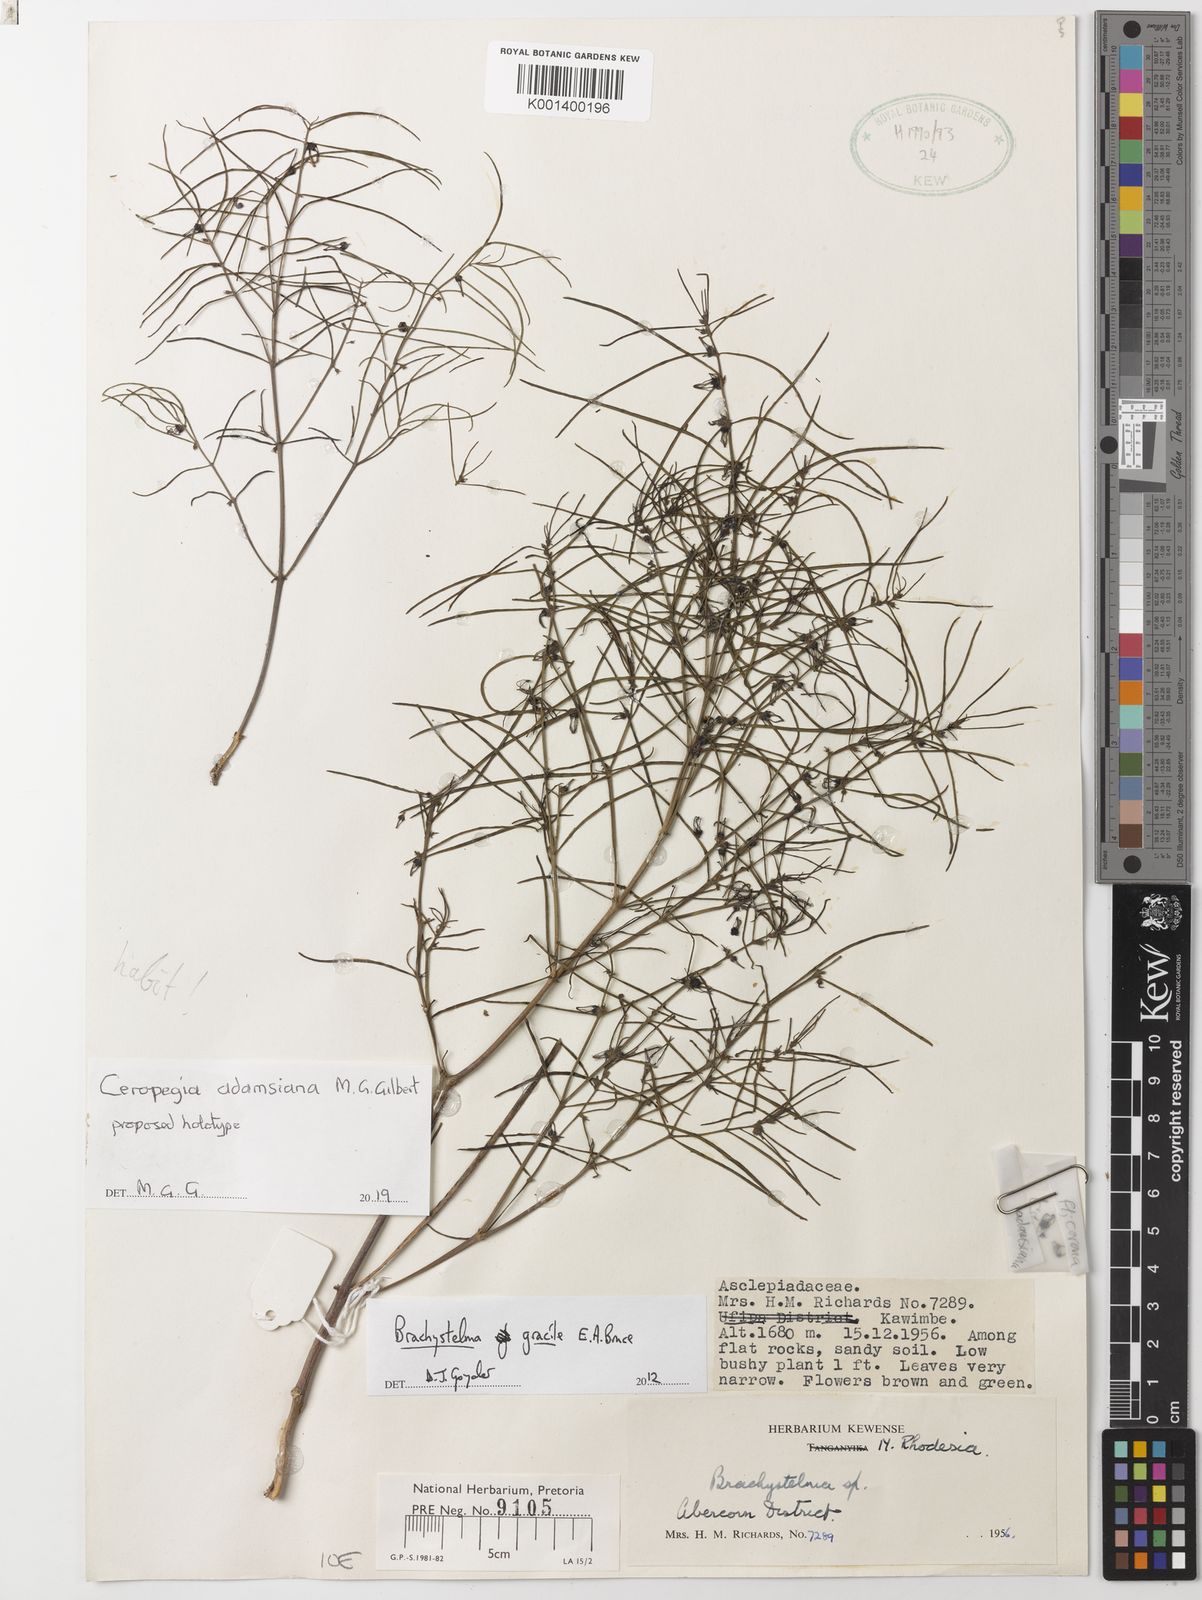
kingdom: Plantae
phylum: Tracheophyta
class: Magnoliopsida
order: Gentianales
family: Apocynaceae
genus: Ceropegia
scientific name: Ceropegia
